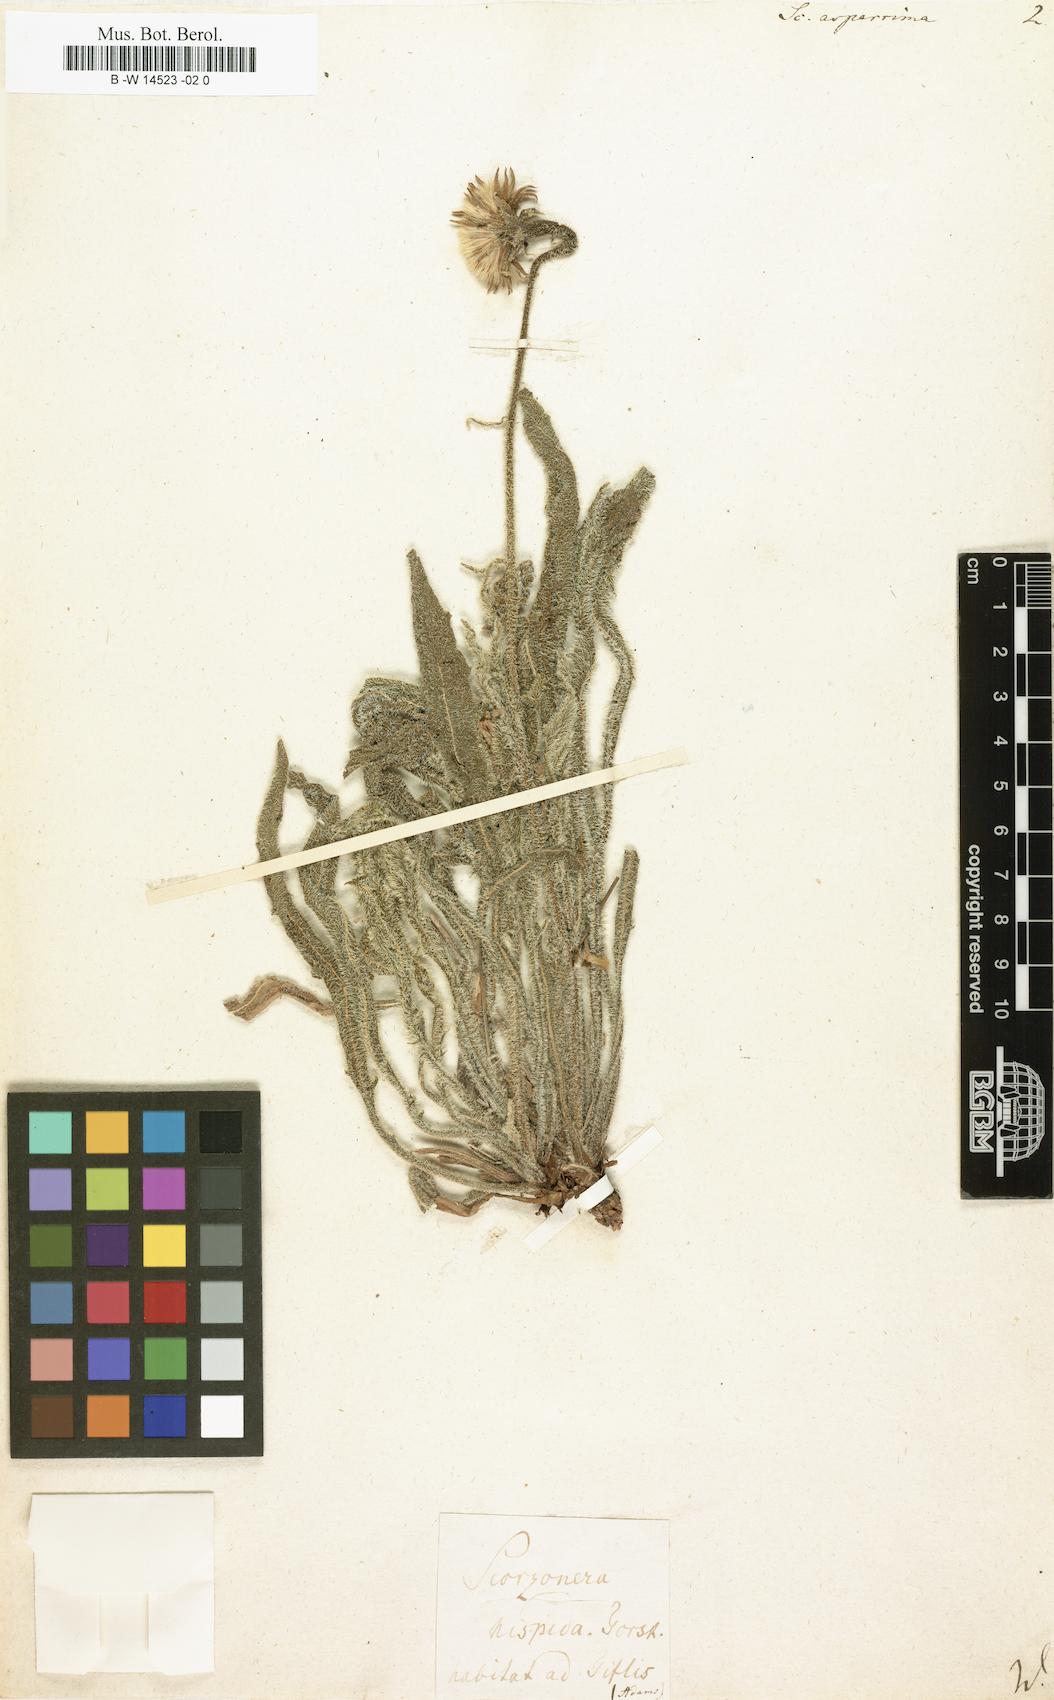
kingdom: Plantae
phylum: Tracheophyta
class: Magnoliopsida
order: Asterales
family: Asteraceae
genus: Leontodon
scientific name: Leontodon asperrimus
